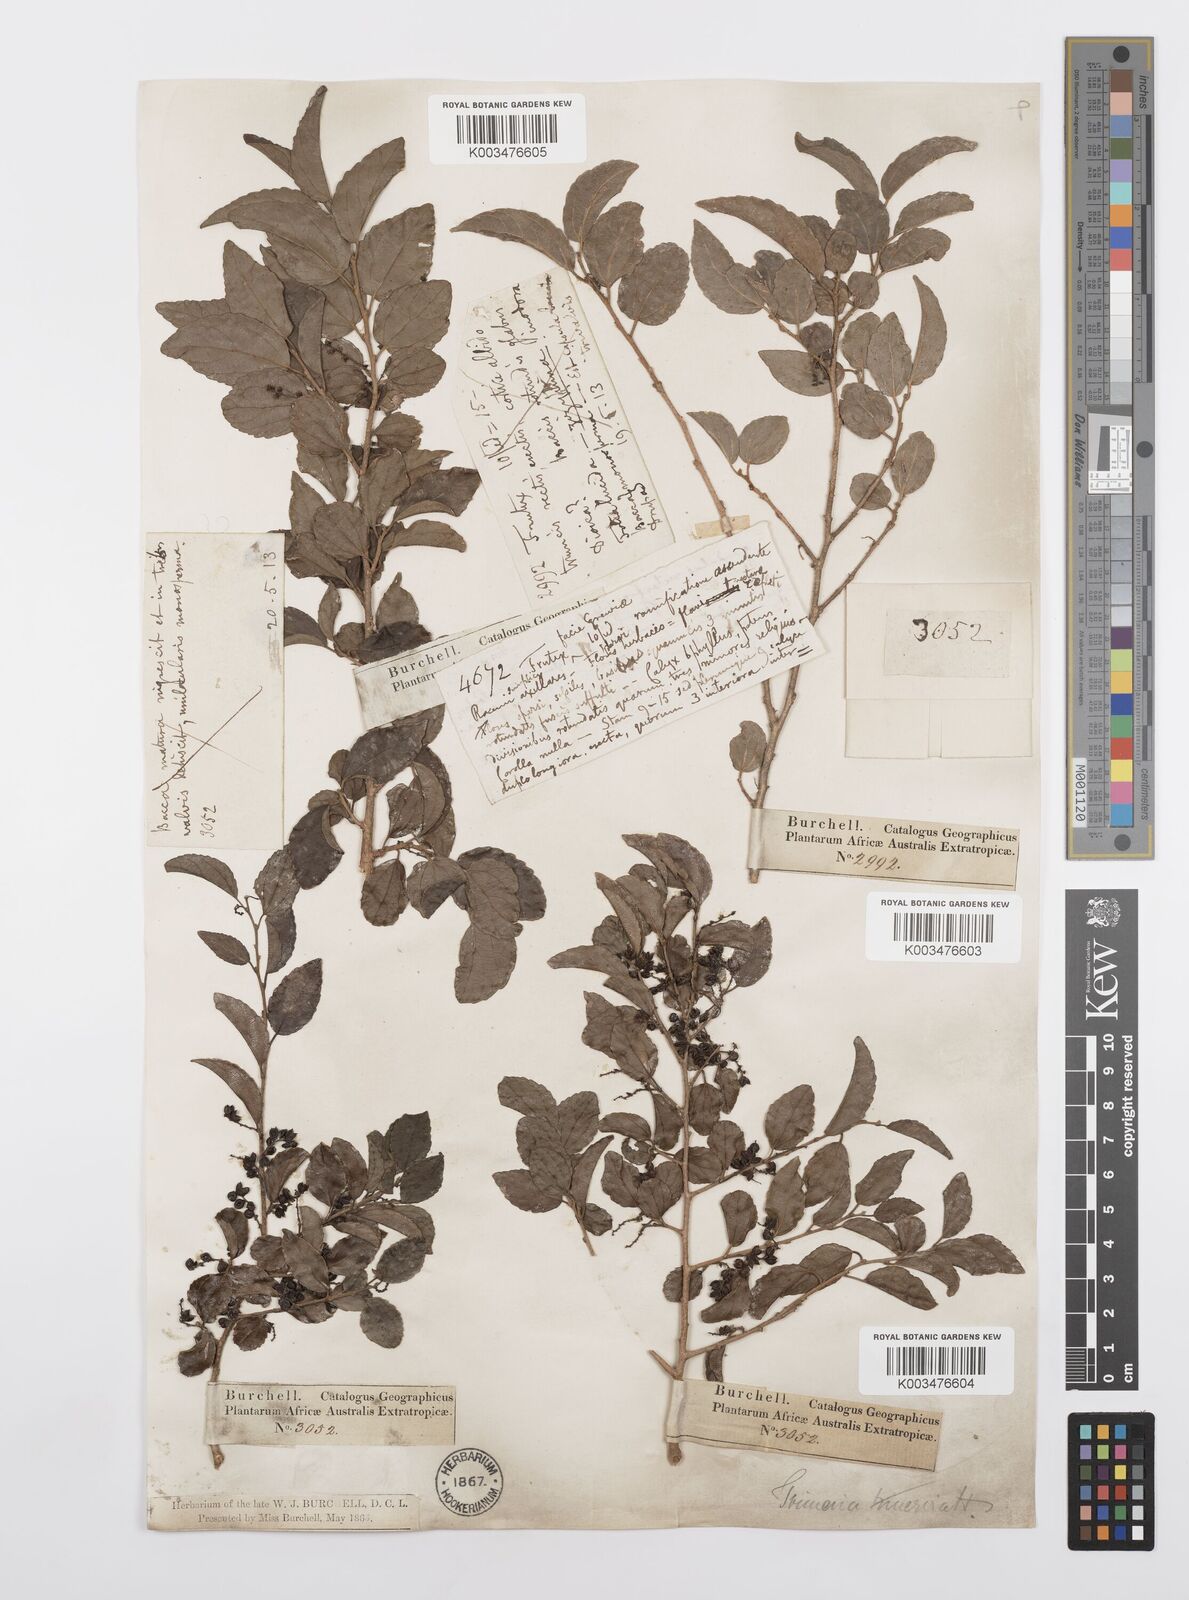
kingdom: Plantae
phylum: Tracheophyta
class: Magnoliopsida
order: Malpighiales
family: Salicaceae
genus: Trimeria
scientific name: Trimeria trinervis
